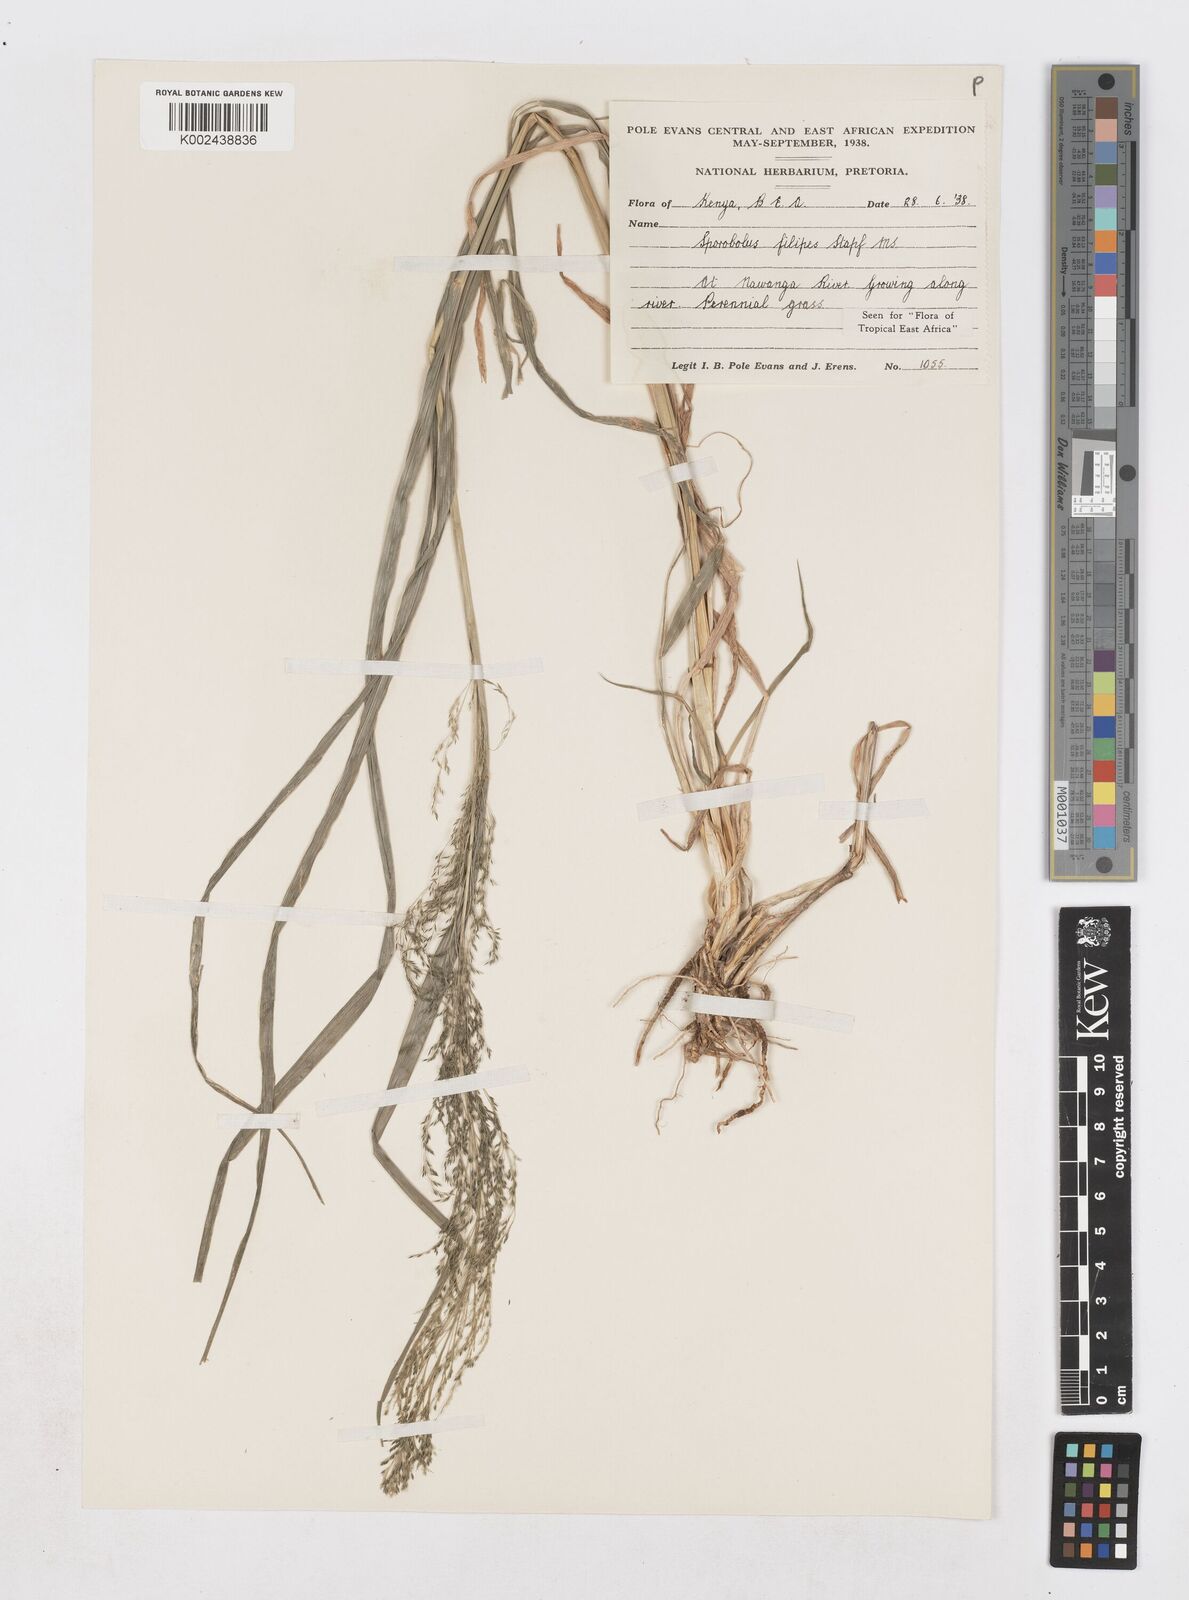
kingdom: Plantae
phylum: Tracheophyta
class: Liliopsida
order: Poales
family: Poaceae
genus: Sporobolus
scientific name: Sporobolus agrostoides
